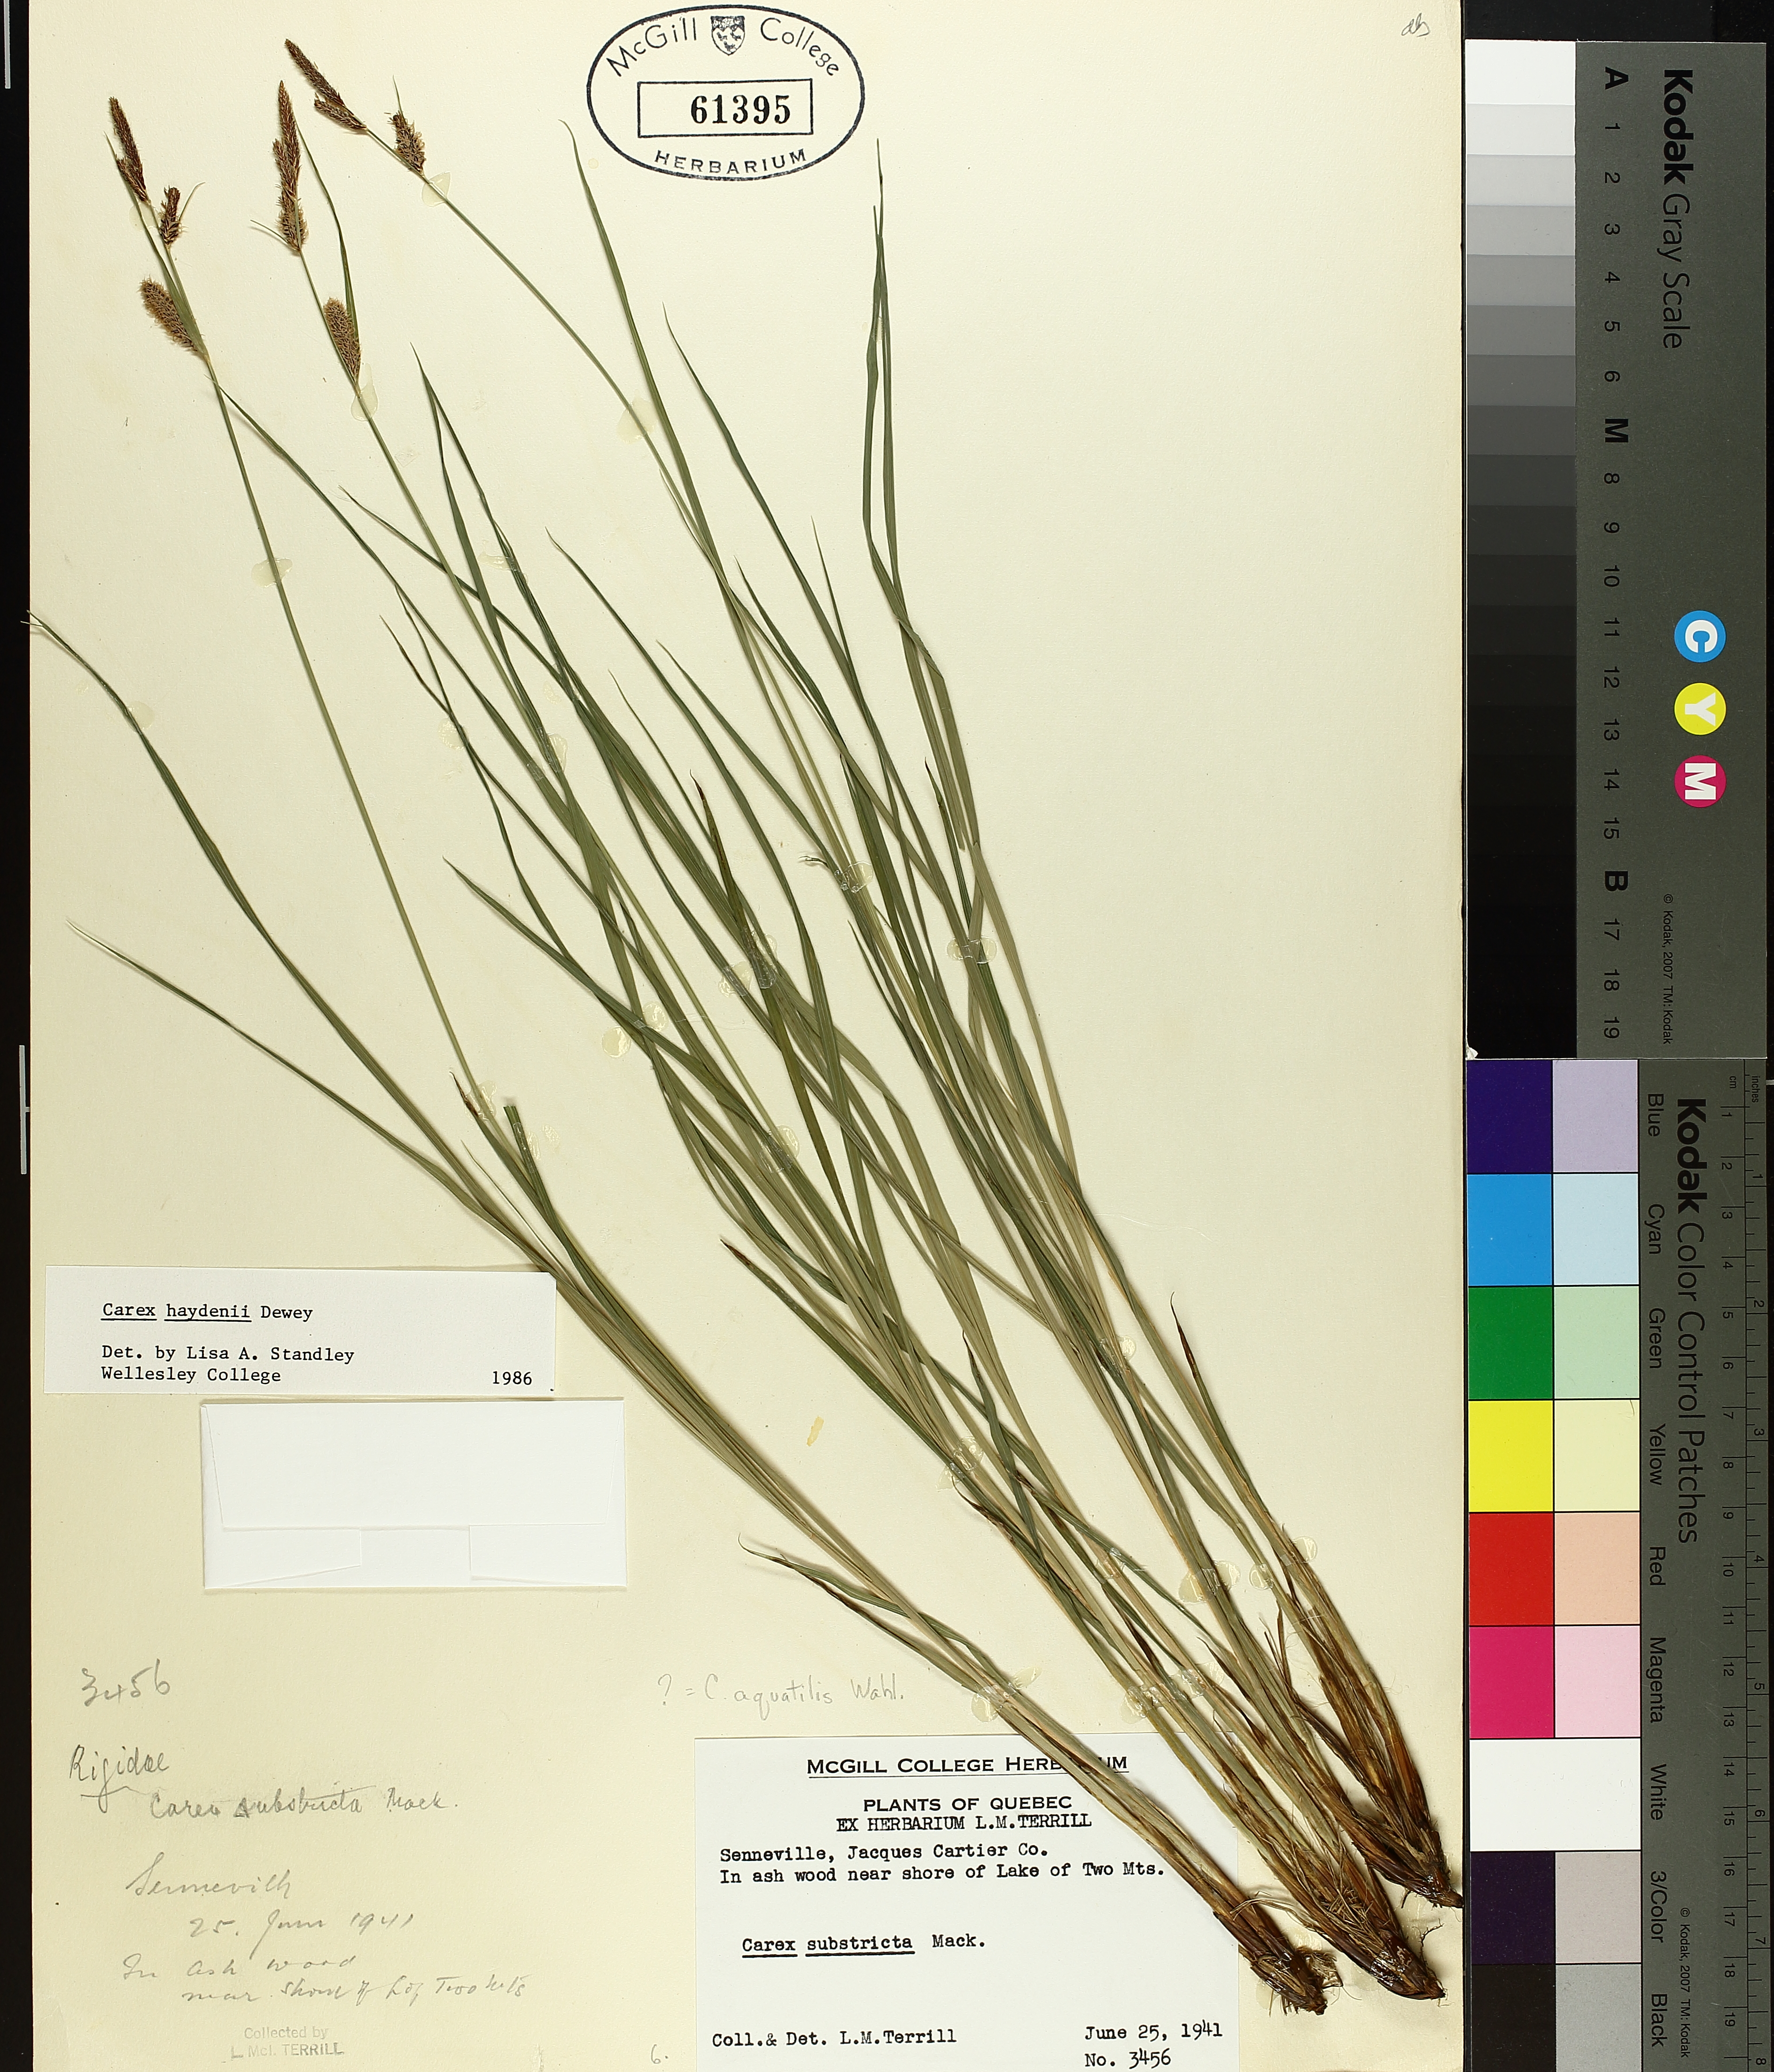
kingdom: Plantae
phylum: Tracheophyta
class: Liliopsida
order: Poales
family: Cyperaceae
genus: Carex
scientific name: Carex haydenii
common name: Hayden's sedge
